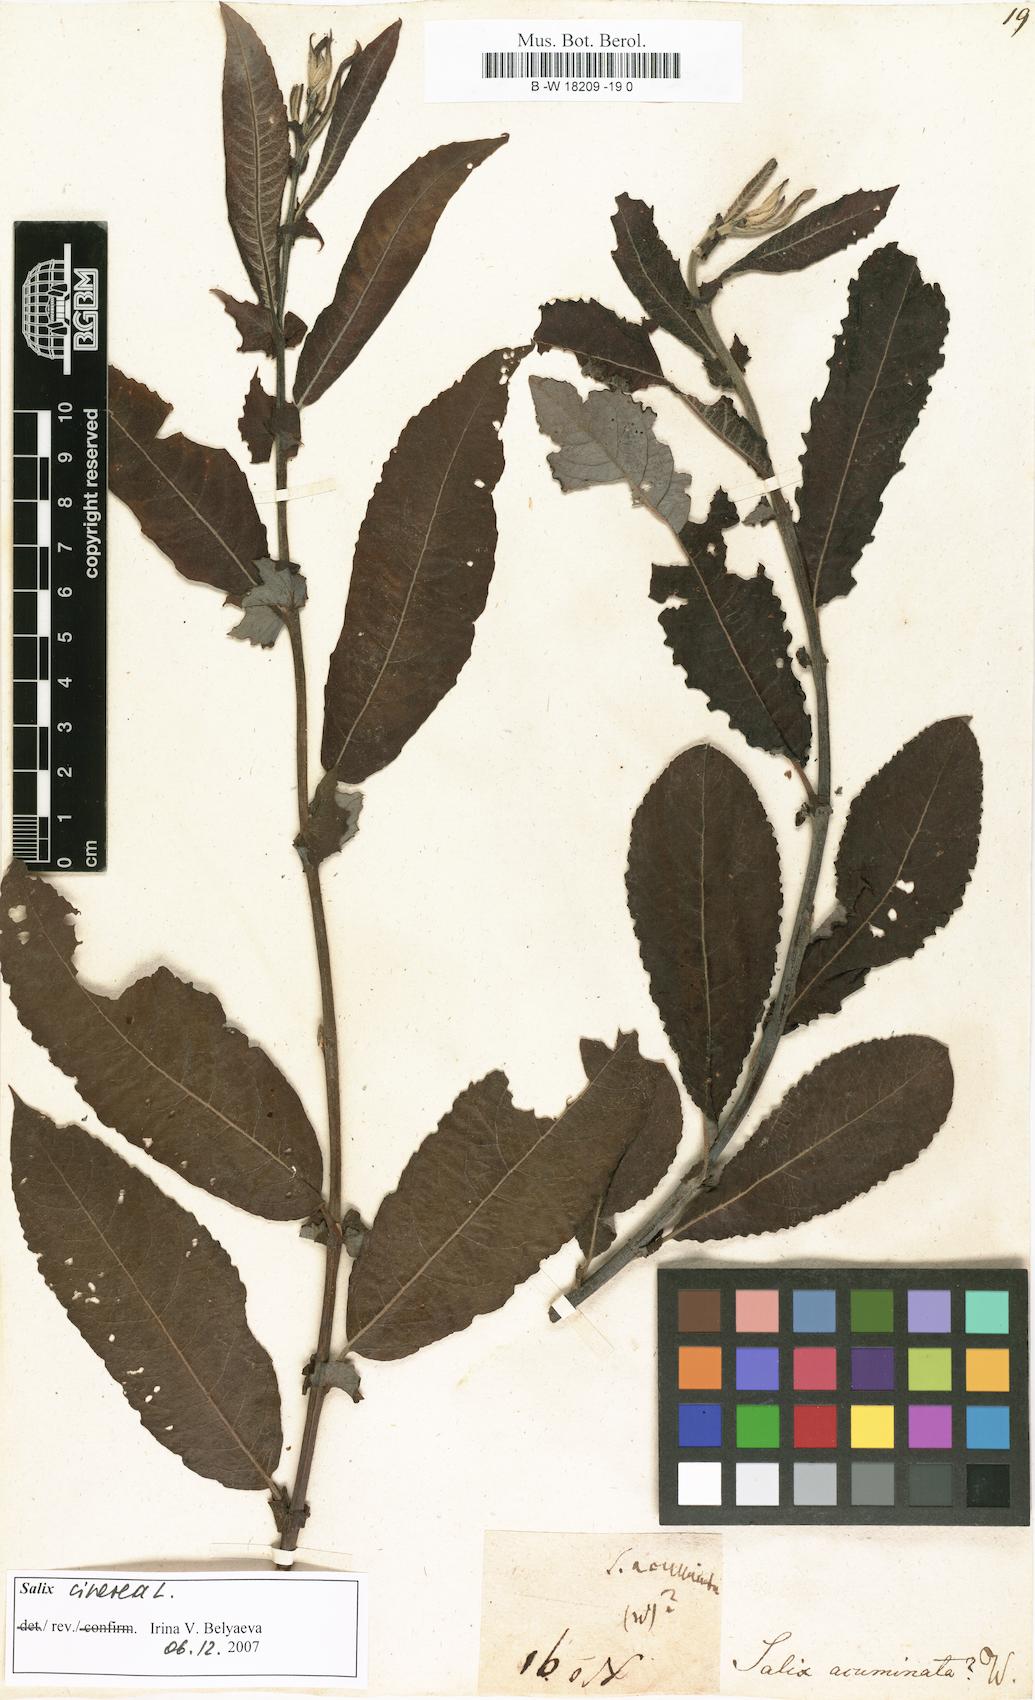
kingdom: Plantae
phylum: Tracheophyta
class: Magnoliopsida
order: Malpighiales
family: Salicaceae
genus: Salix
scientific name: Salix
